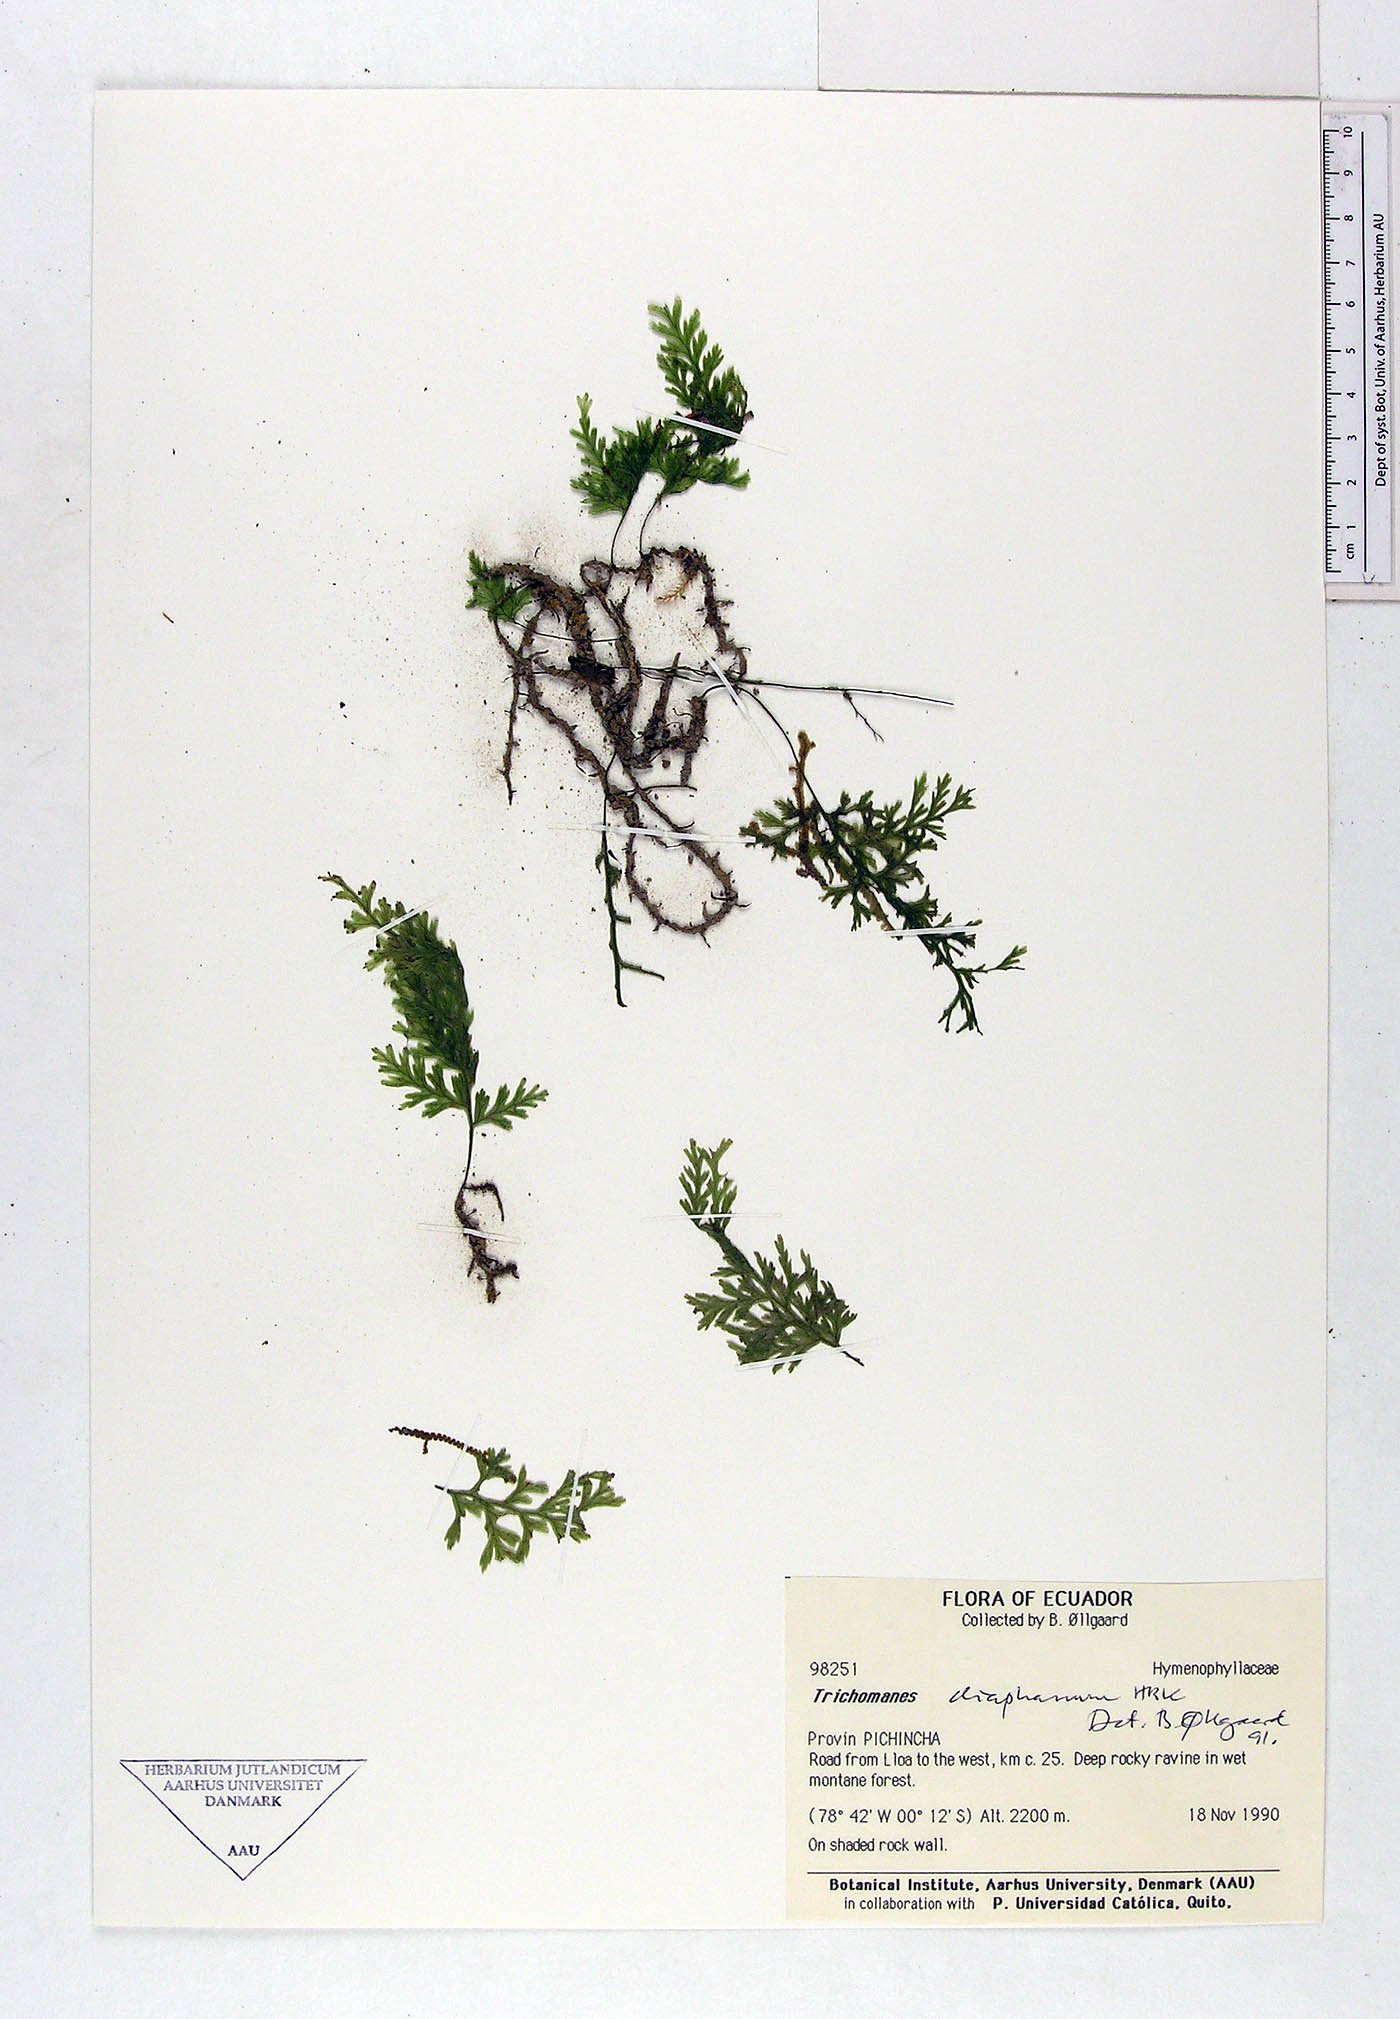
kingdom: Plantae
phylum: Tracheophyta
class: Polypodiopsida
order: Hymenophyllales
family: Hymenophyllaceae
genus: Polyphlebium
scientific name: Polyphlebium diaphanum
